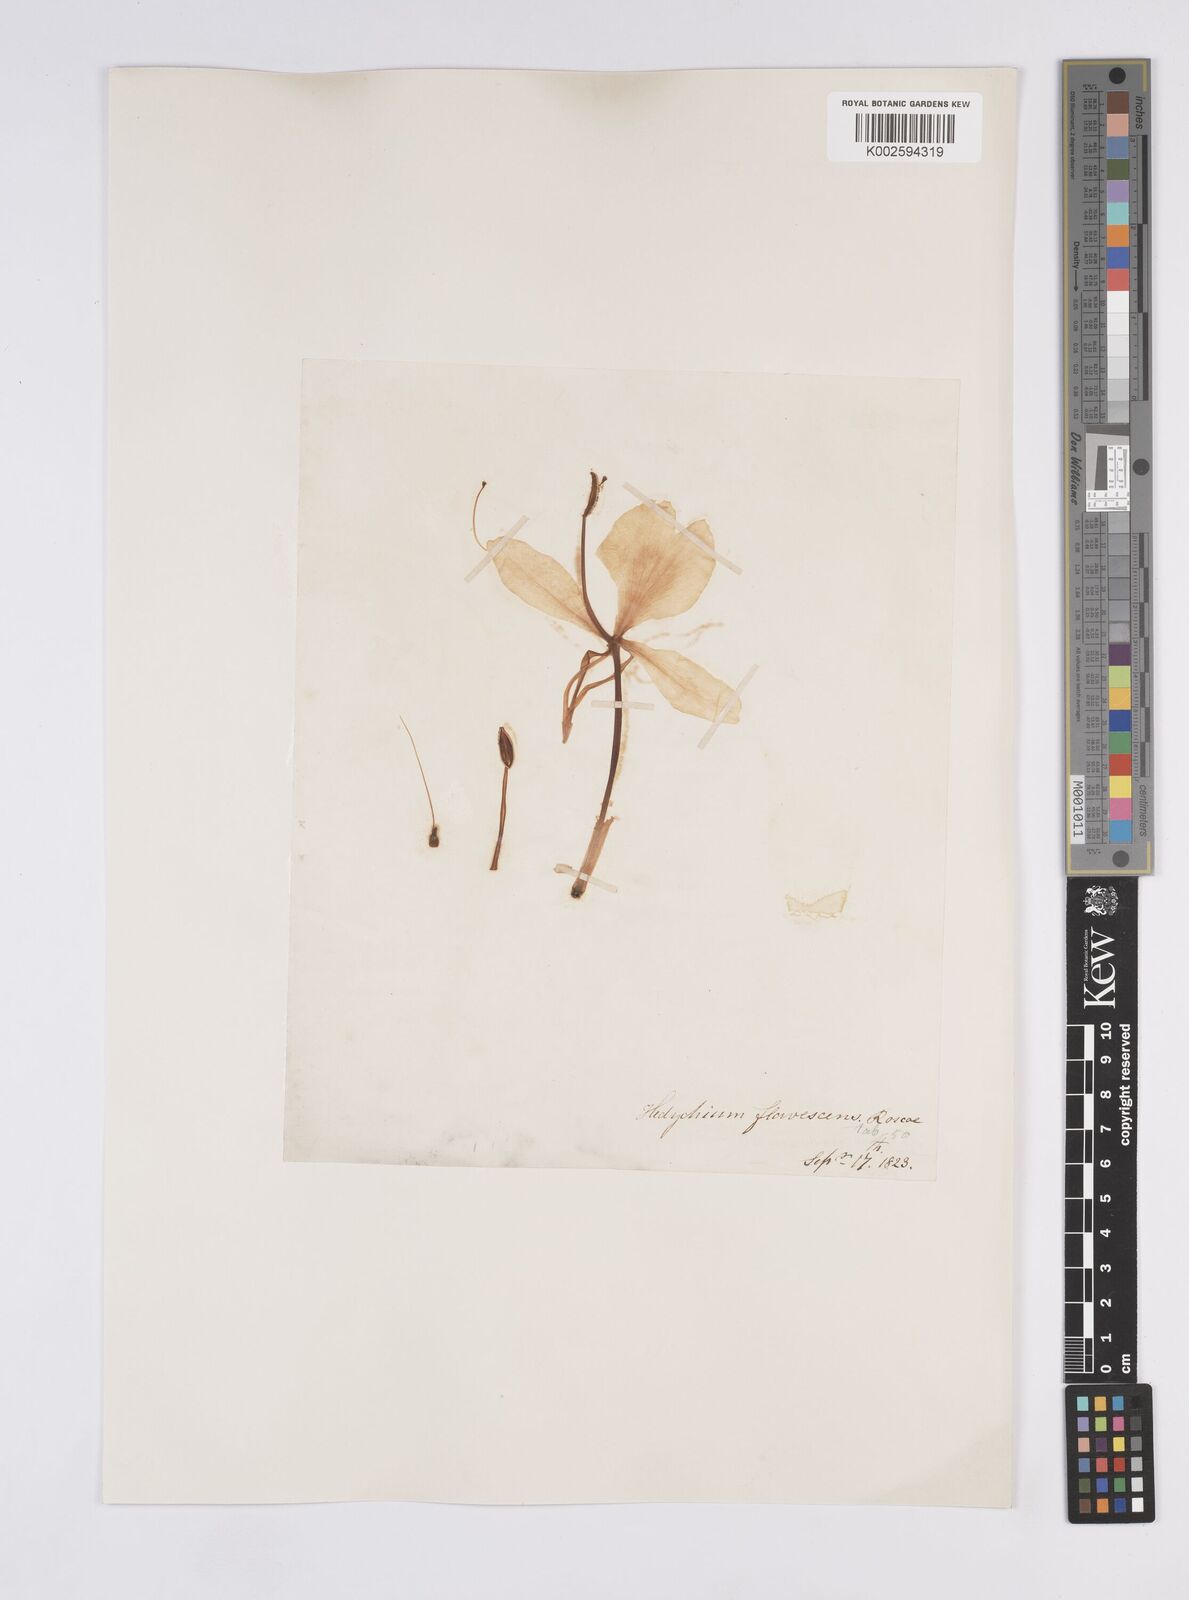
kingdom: Plantae
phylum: Tracheophyta
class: Liliopsida
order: Zingiberales
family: Zingiberaceae
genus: Hedychium
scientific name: Hedychium flavescens
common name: Yellow ginger
